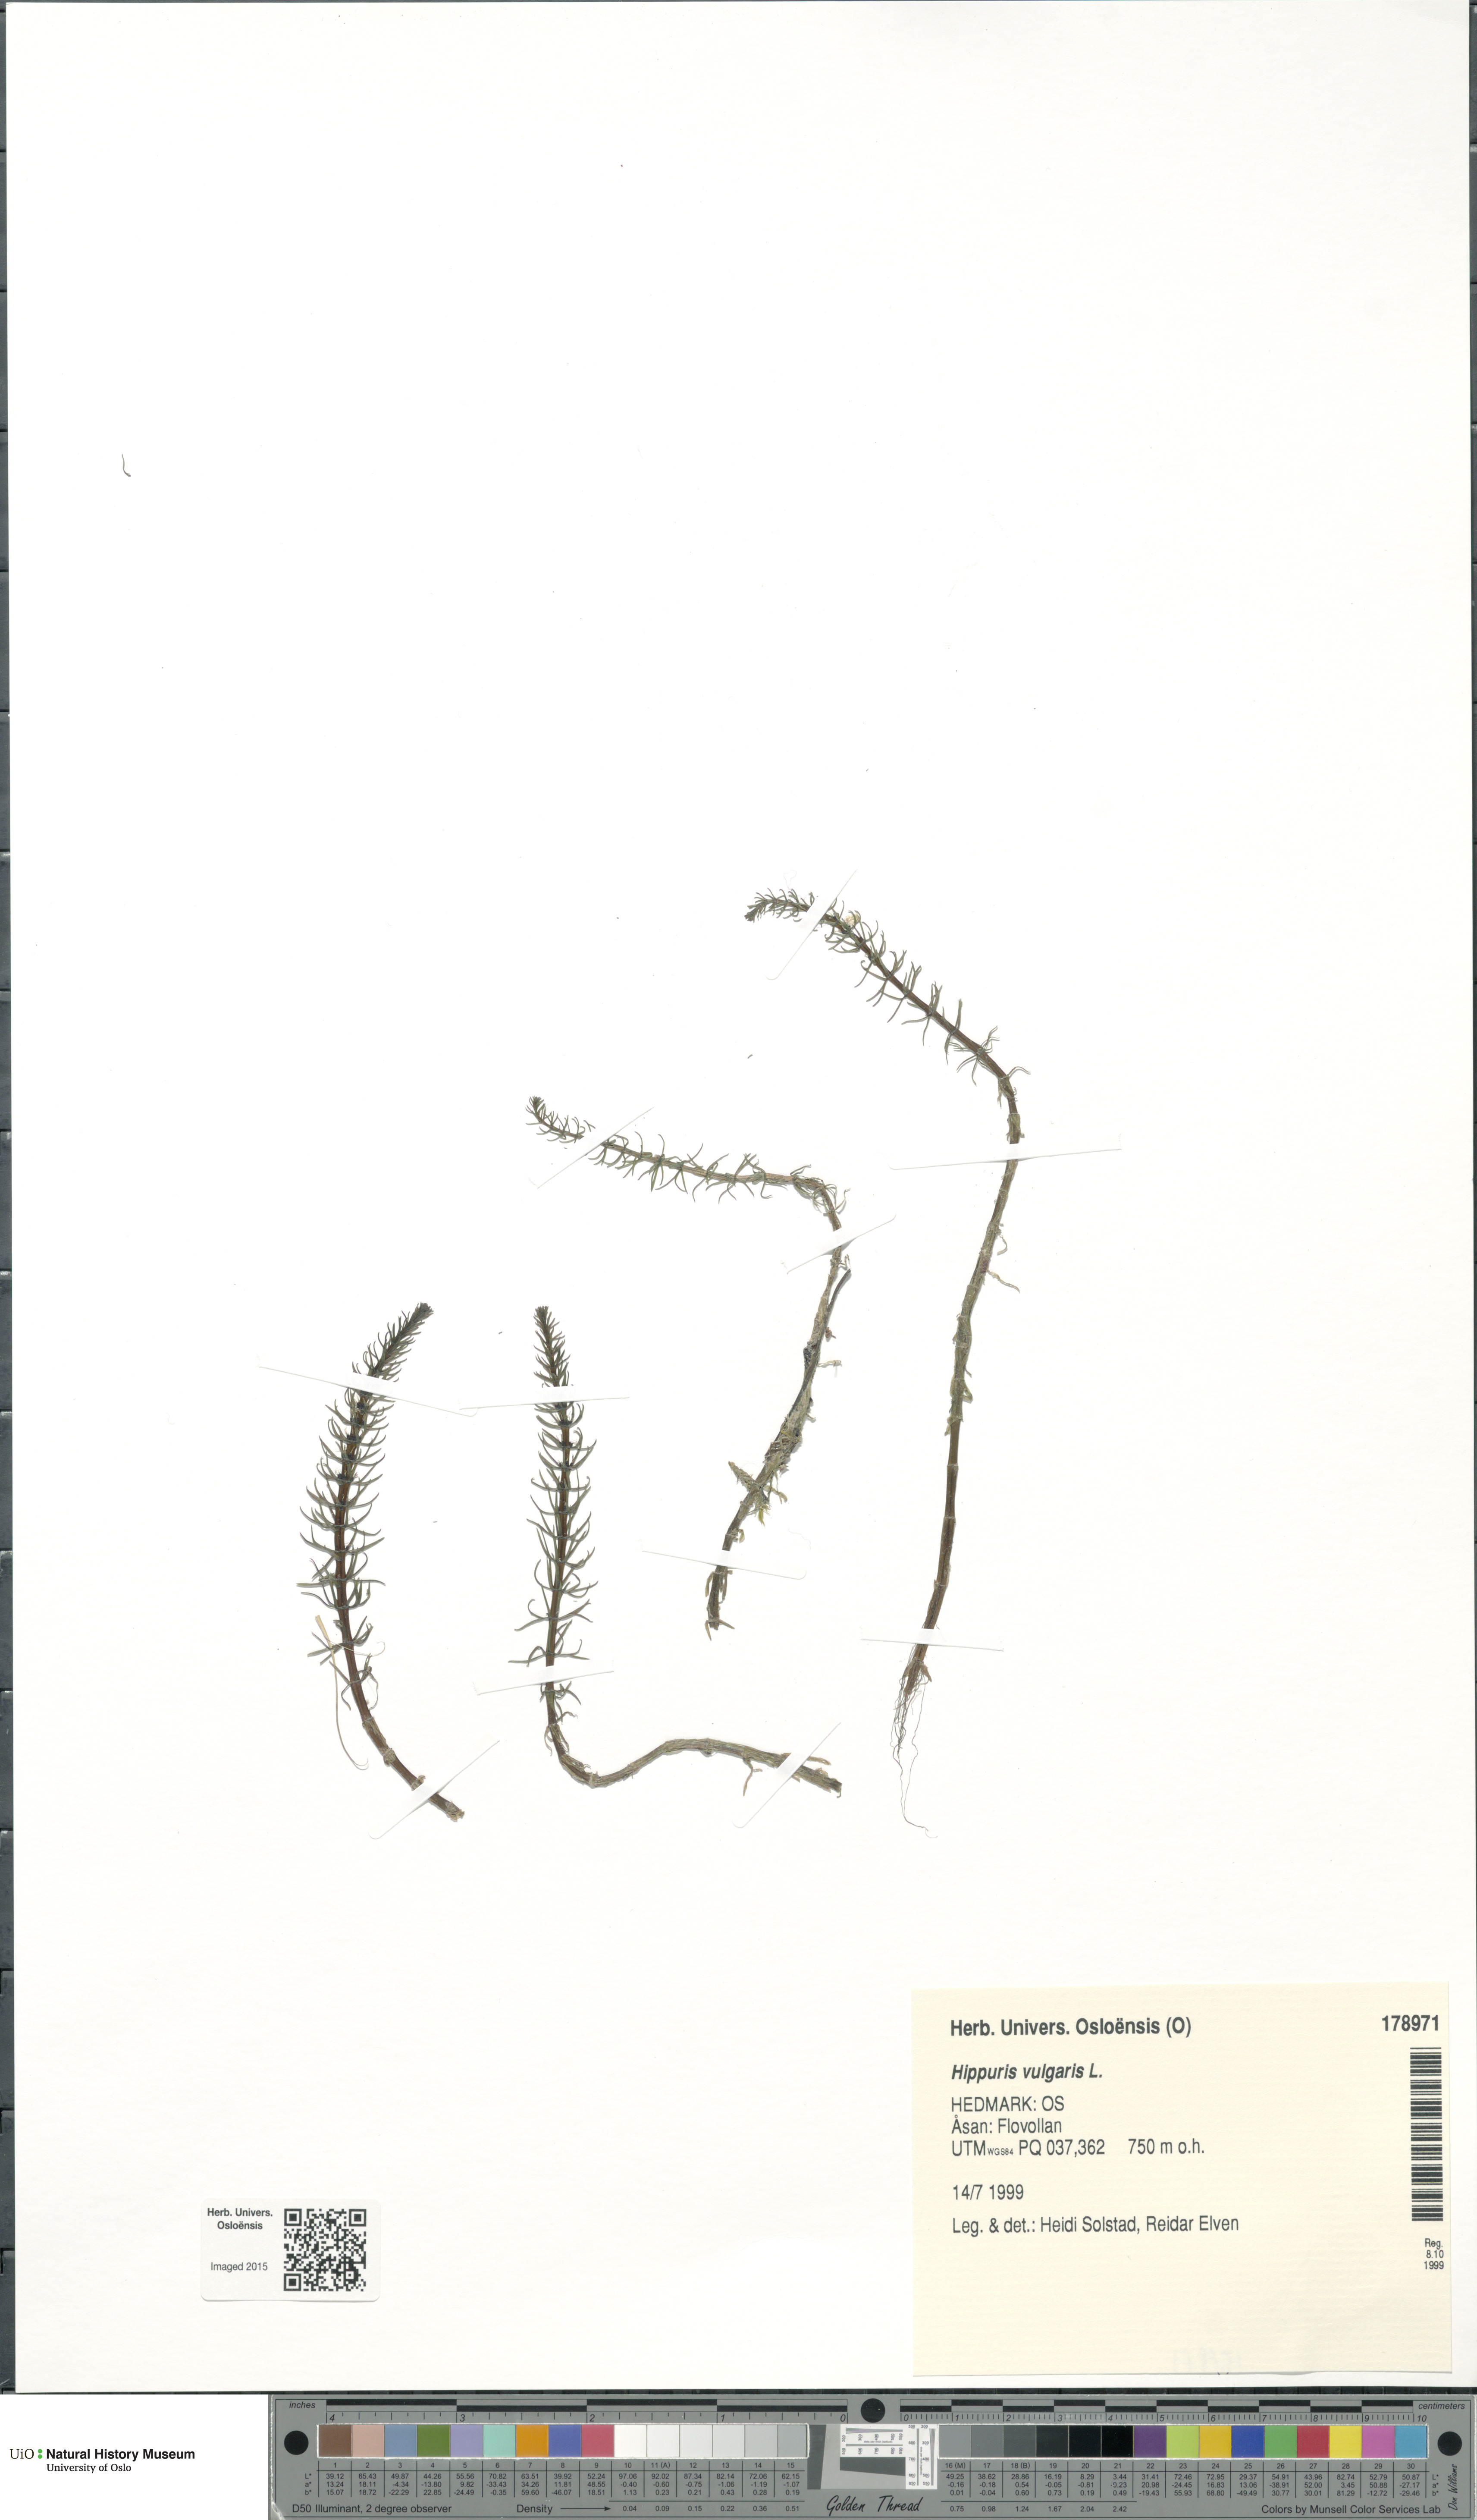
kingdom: Plantae
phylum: Tracheophyta
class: Magnoliopsida
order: Lamiales
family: Plantaginaceae
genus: Hippuris
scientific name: Hippuris vulgaris
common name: Mare's-tail
